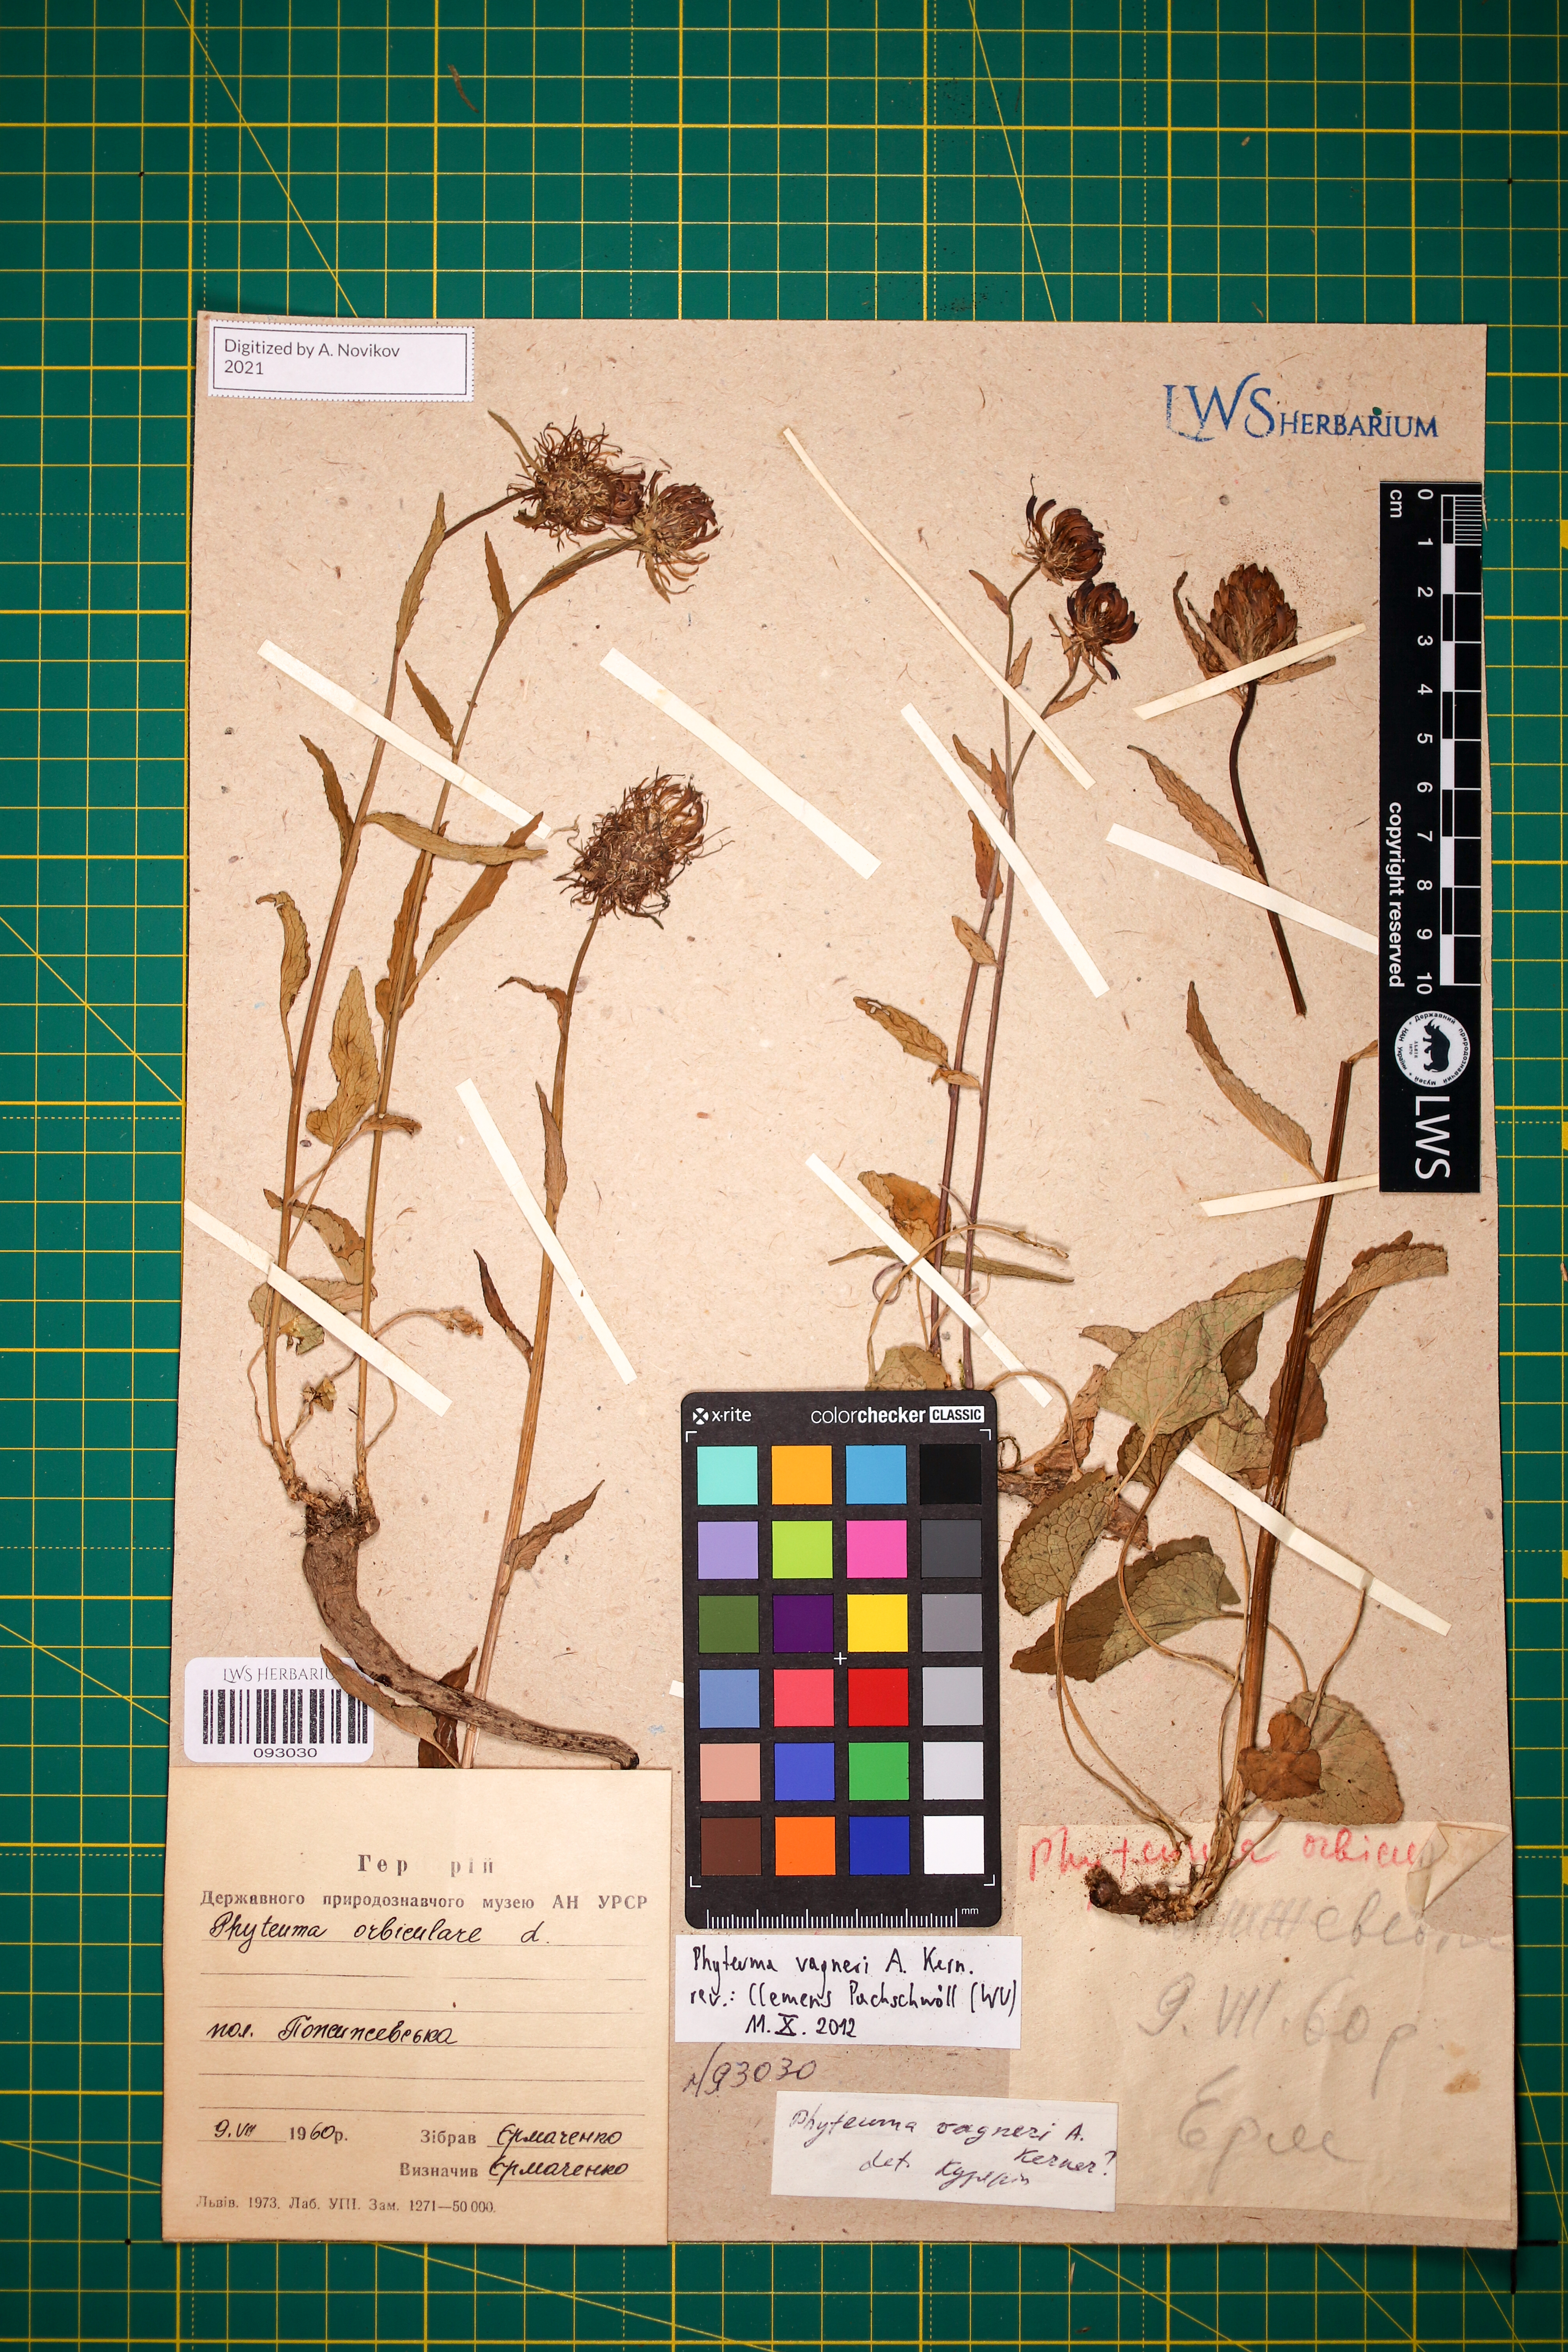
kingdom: Plantae
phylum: Tracheophyta
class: Magnoliopsida
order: Asterales
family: Campanulaceae
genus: Phyteuma
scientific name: Phyteuma vagneri
